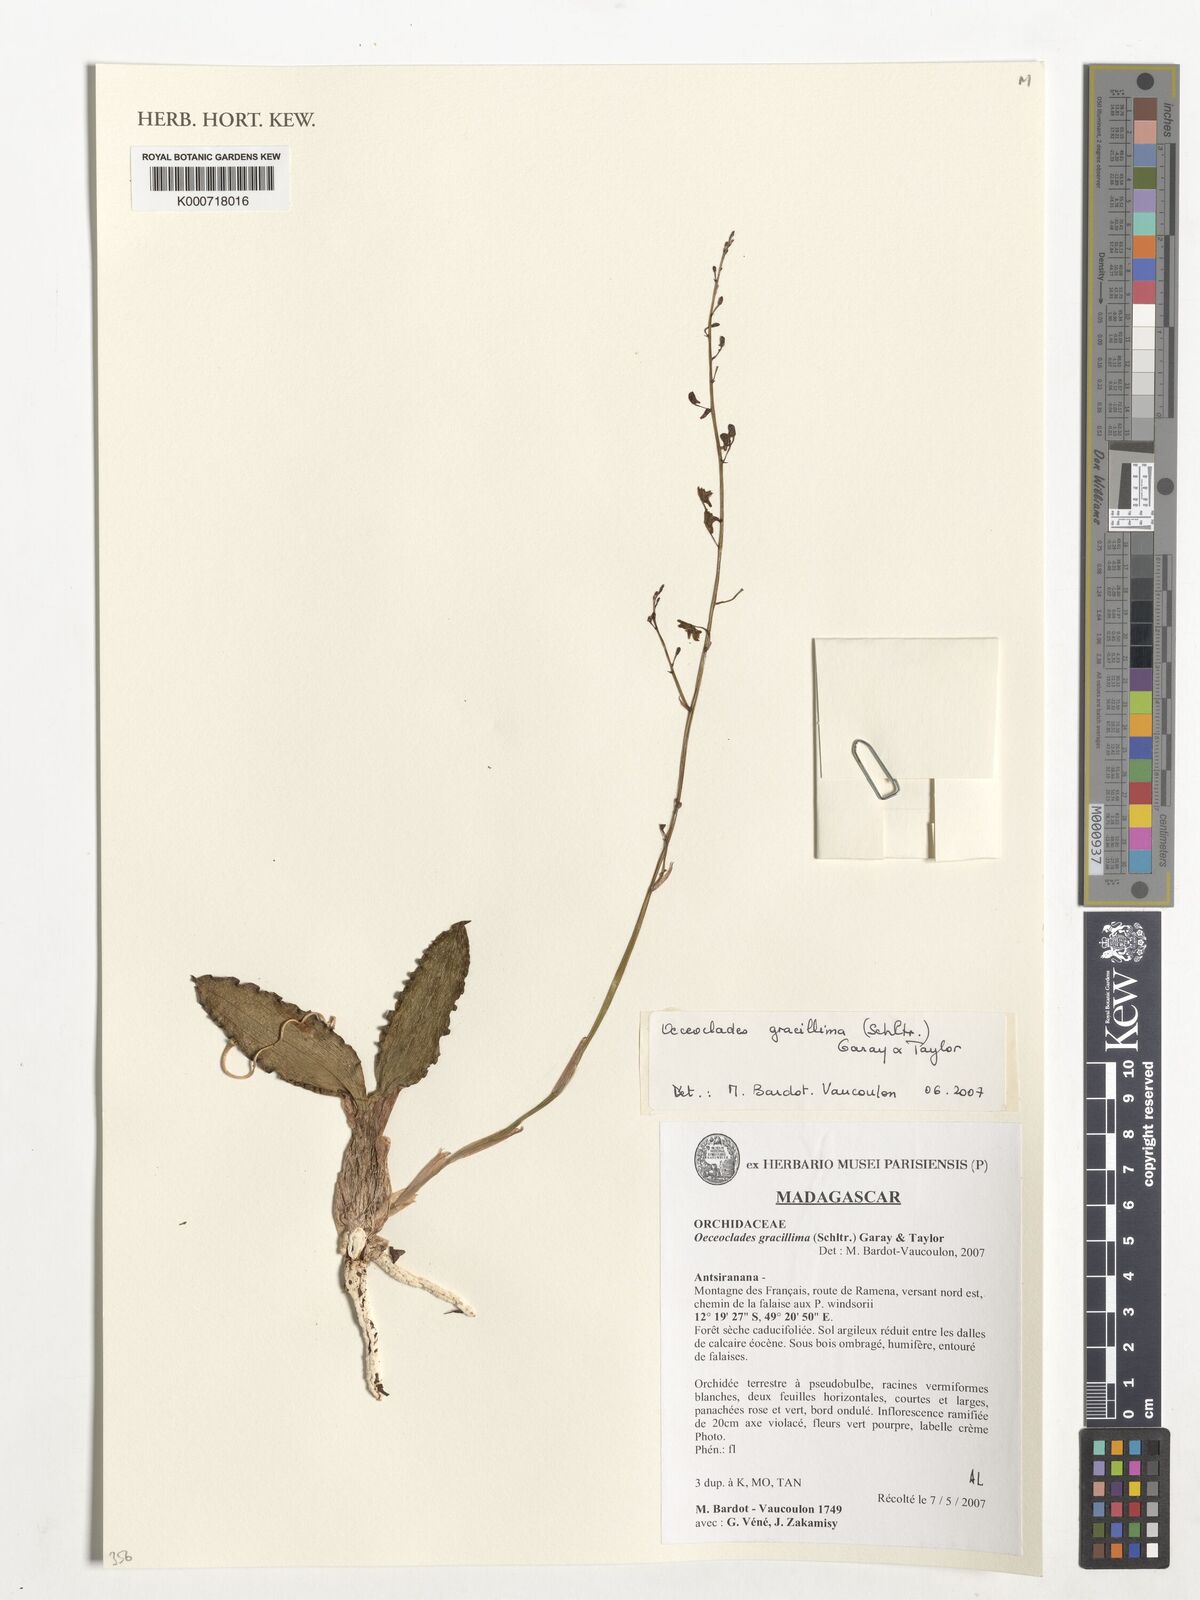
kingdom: Plantae
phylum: Tracheophyta
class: Liliopsida
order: Asparagales
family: Orchidaceae
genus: Eulophia
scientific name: Eulophia roseovariegata
